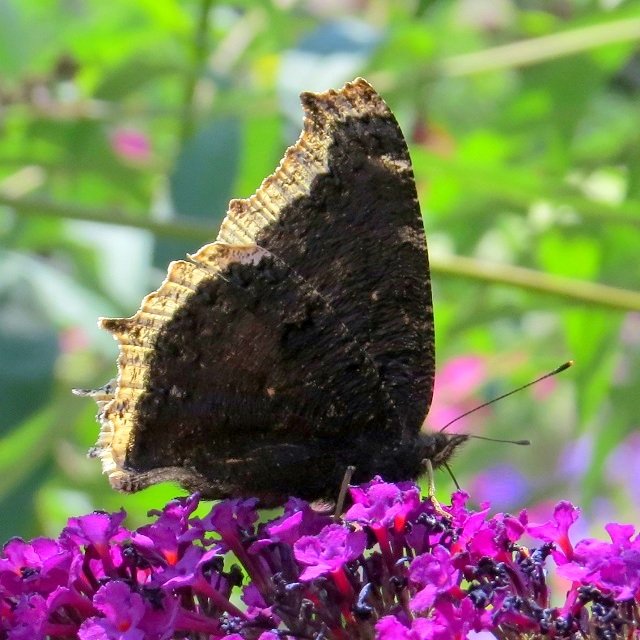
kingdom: Animalia
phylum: Arthropoda
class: Insecta
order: Lepidoptera
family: Nymphalidae
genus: Nymphalis
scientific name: Nymphalis antiopa
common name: Mourning Cloak
